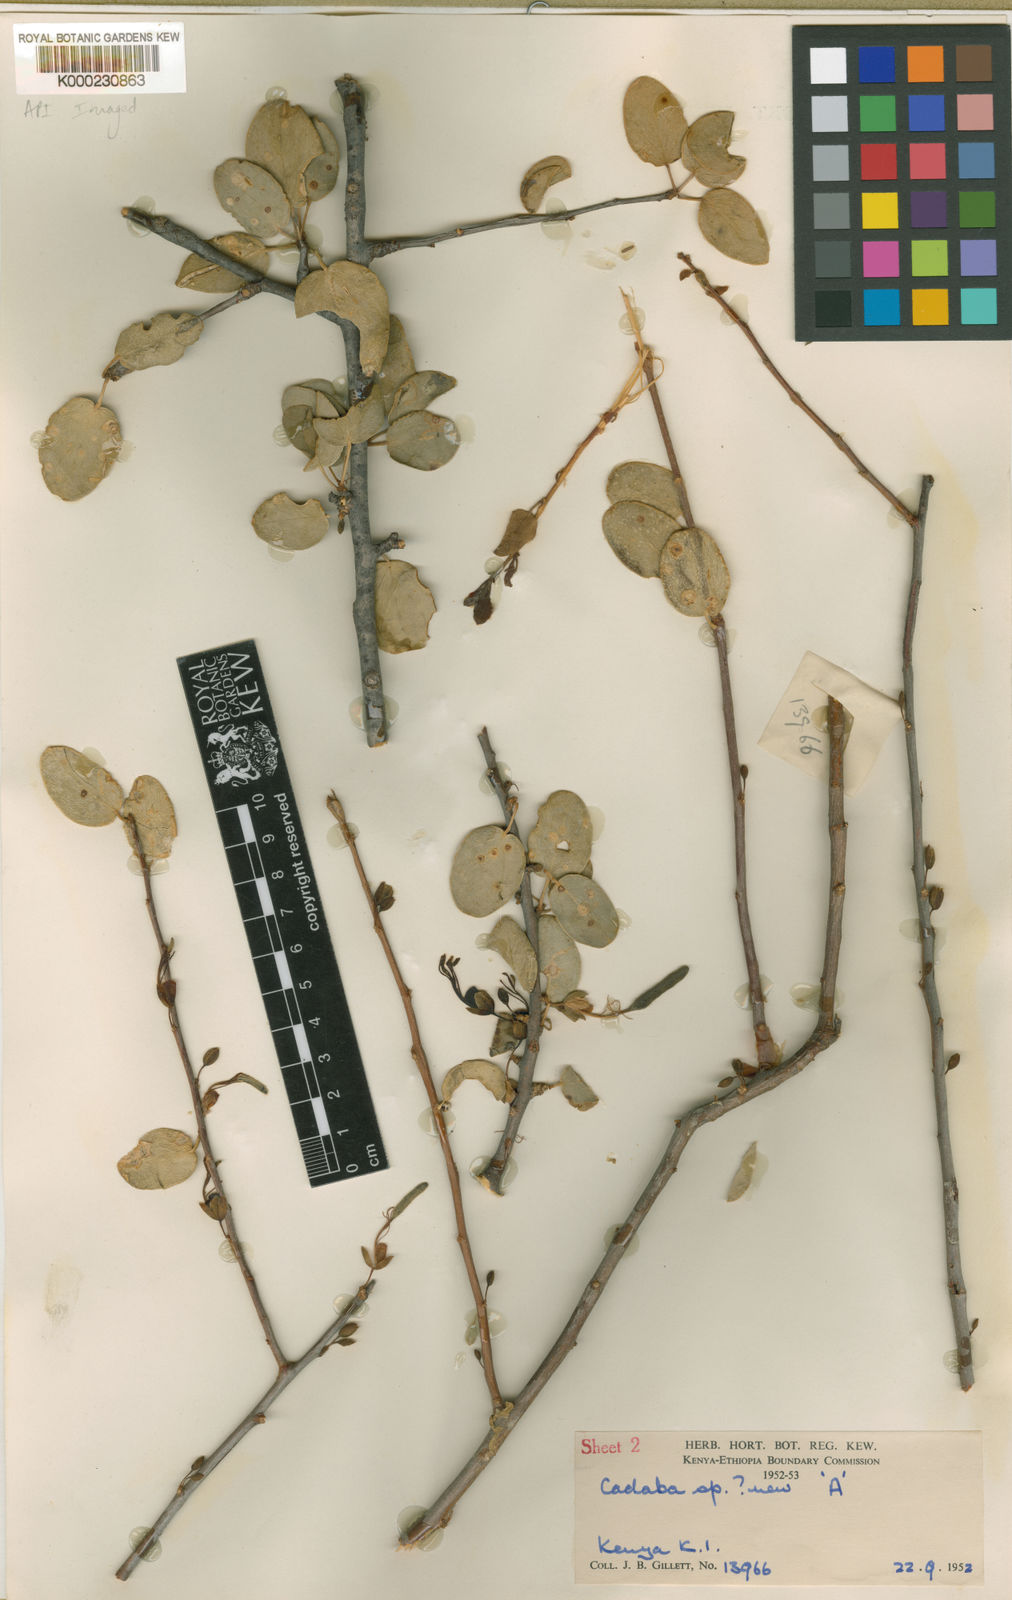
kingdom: Plantae
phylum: Tracheophyta
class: Magnoliopsida
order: Brassicales
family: Capparaceae
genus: Cadaba
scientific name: Cadaba gillettii
